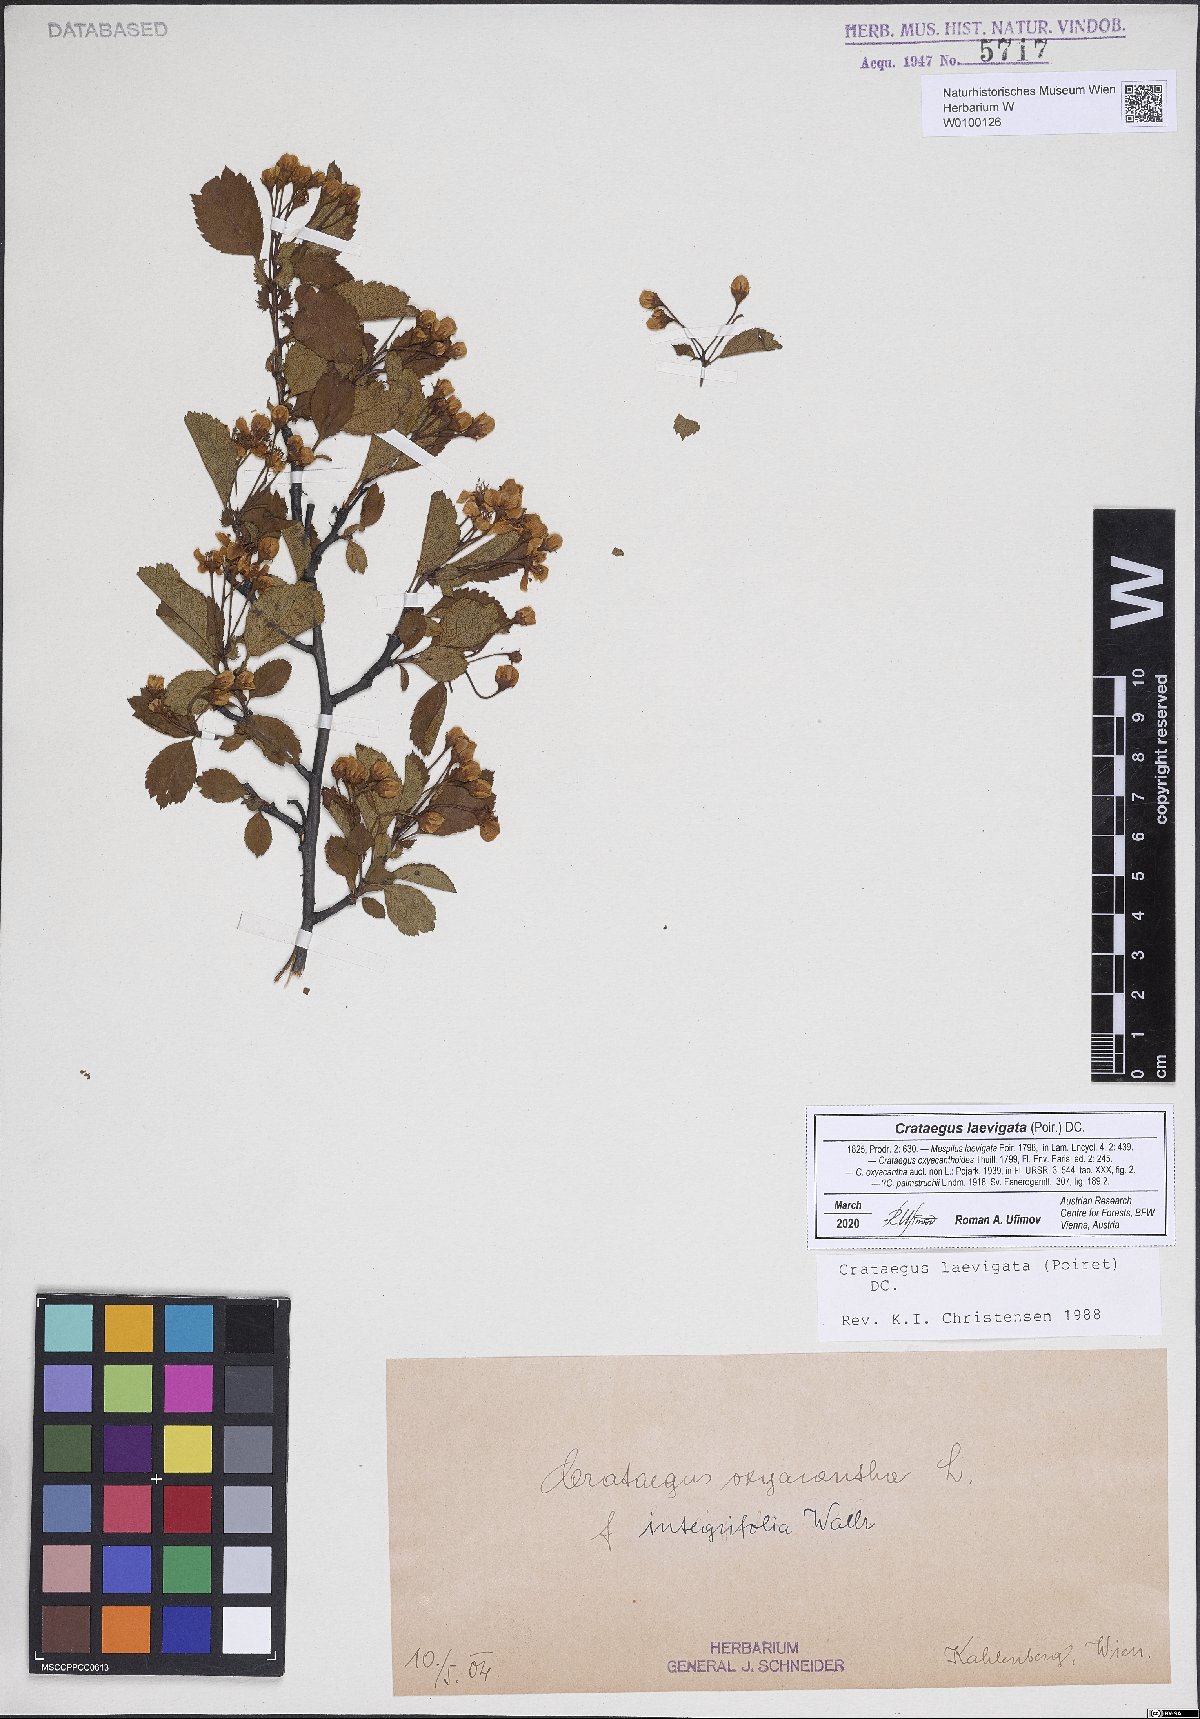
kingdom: Plantae
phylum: Tracheophyta
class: Magnoliopsida
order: Rosales
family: Rosaceae
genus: Crataegus
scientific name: Crataegus laevigata
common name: Midland hawthorn
